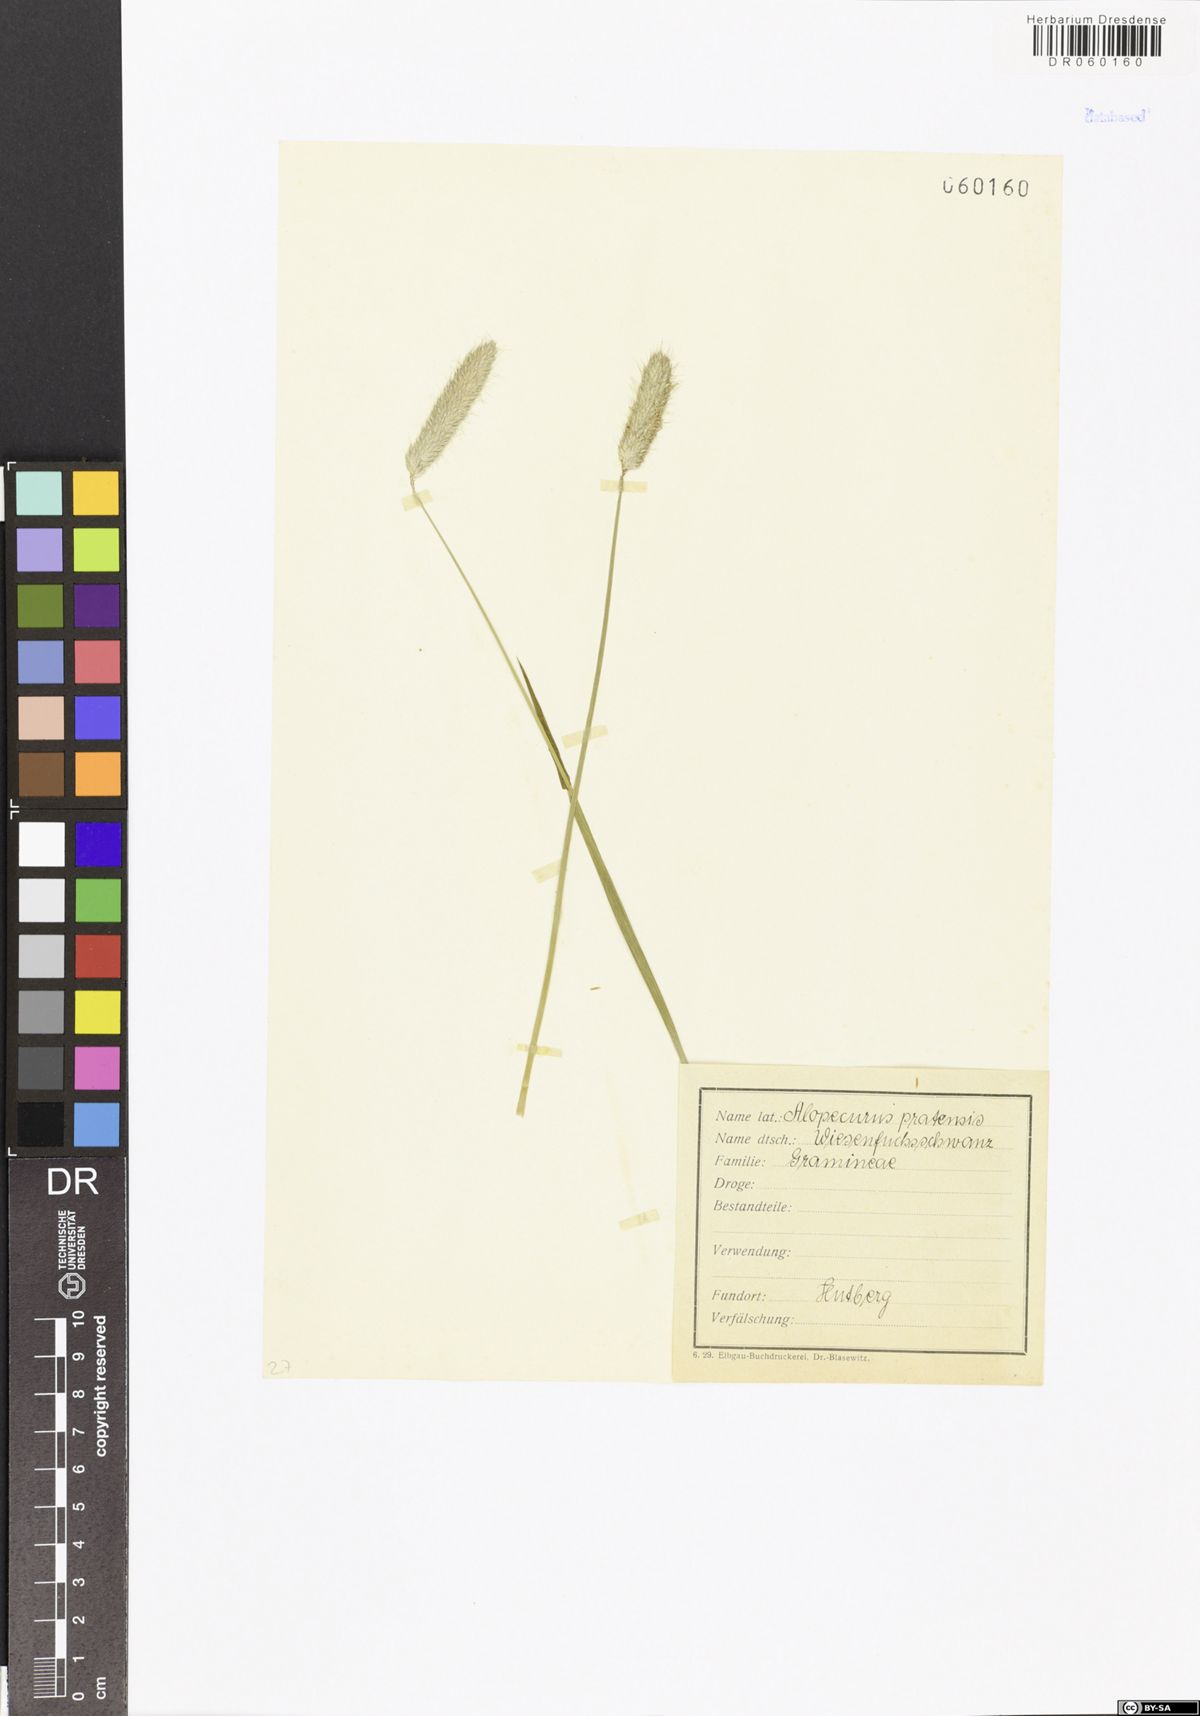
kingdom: Plantae
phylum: Tracheophyta
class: Liliopsida
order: Poales
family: Poaceae
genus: Alopecurus
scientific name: Alopecurus pratensis
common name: Meadow foxtail
